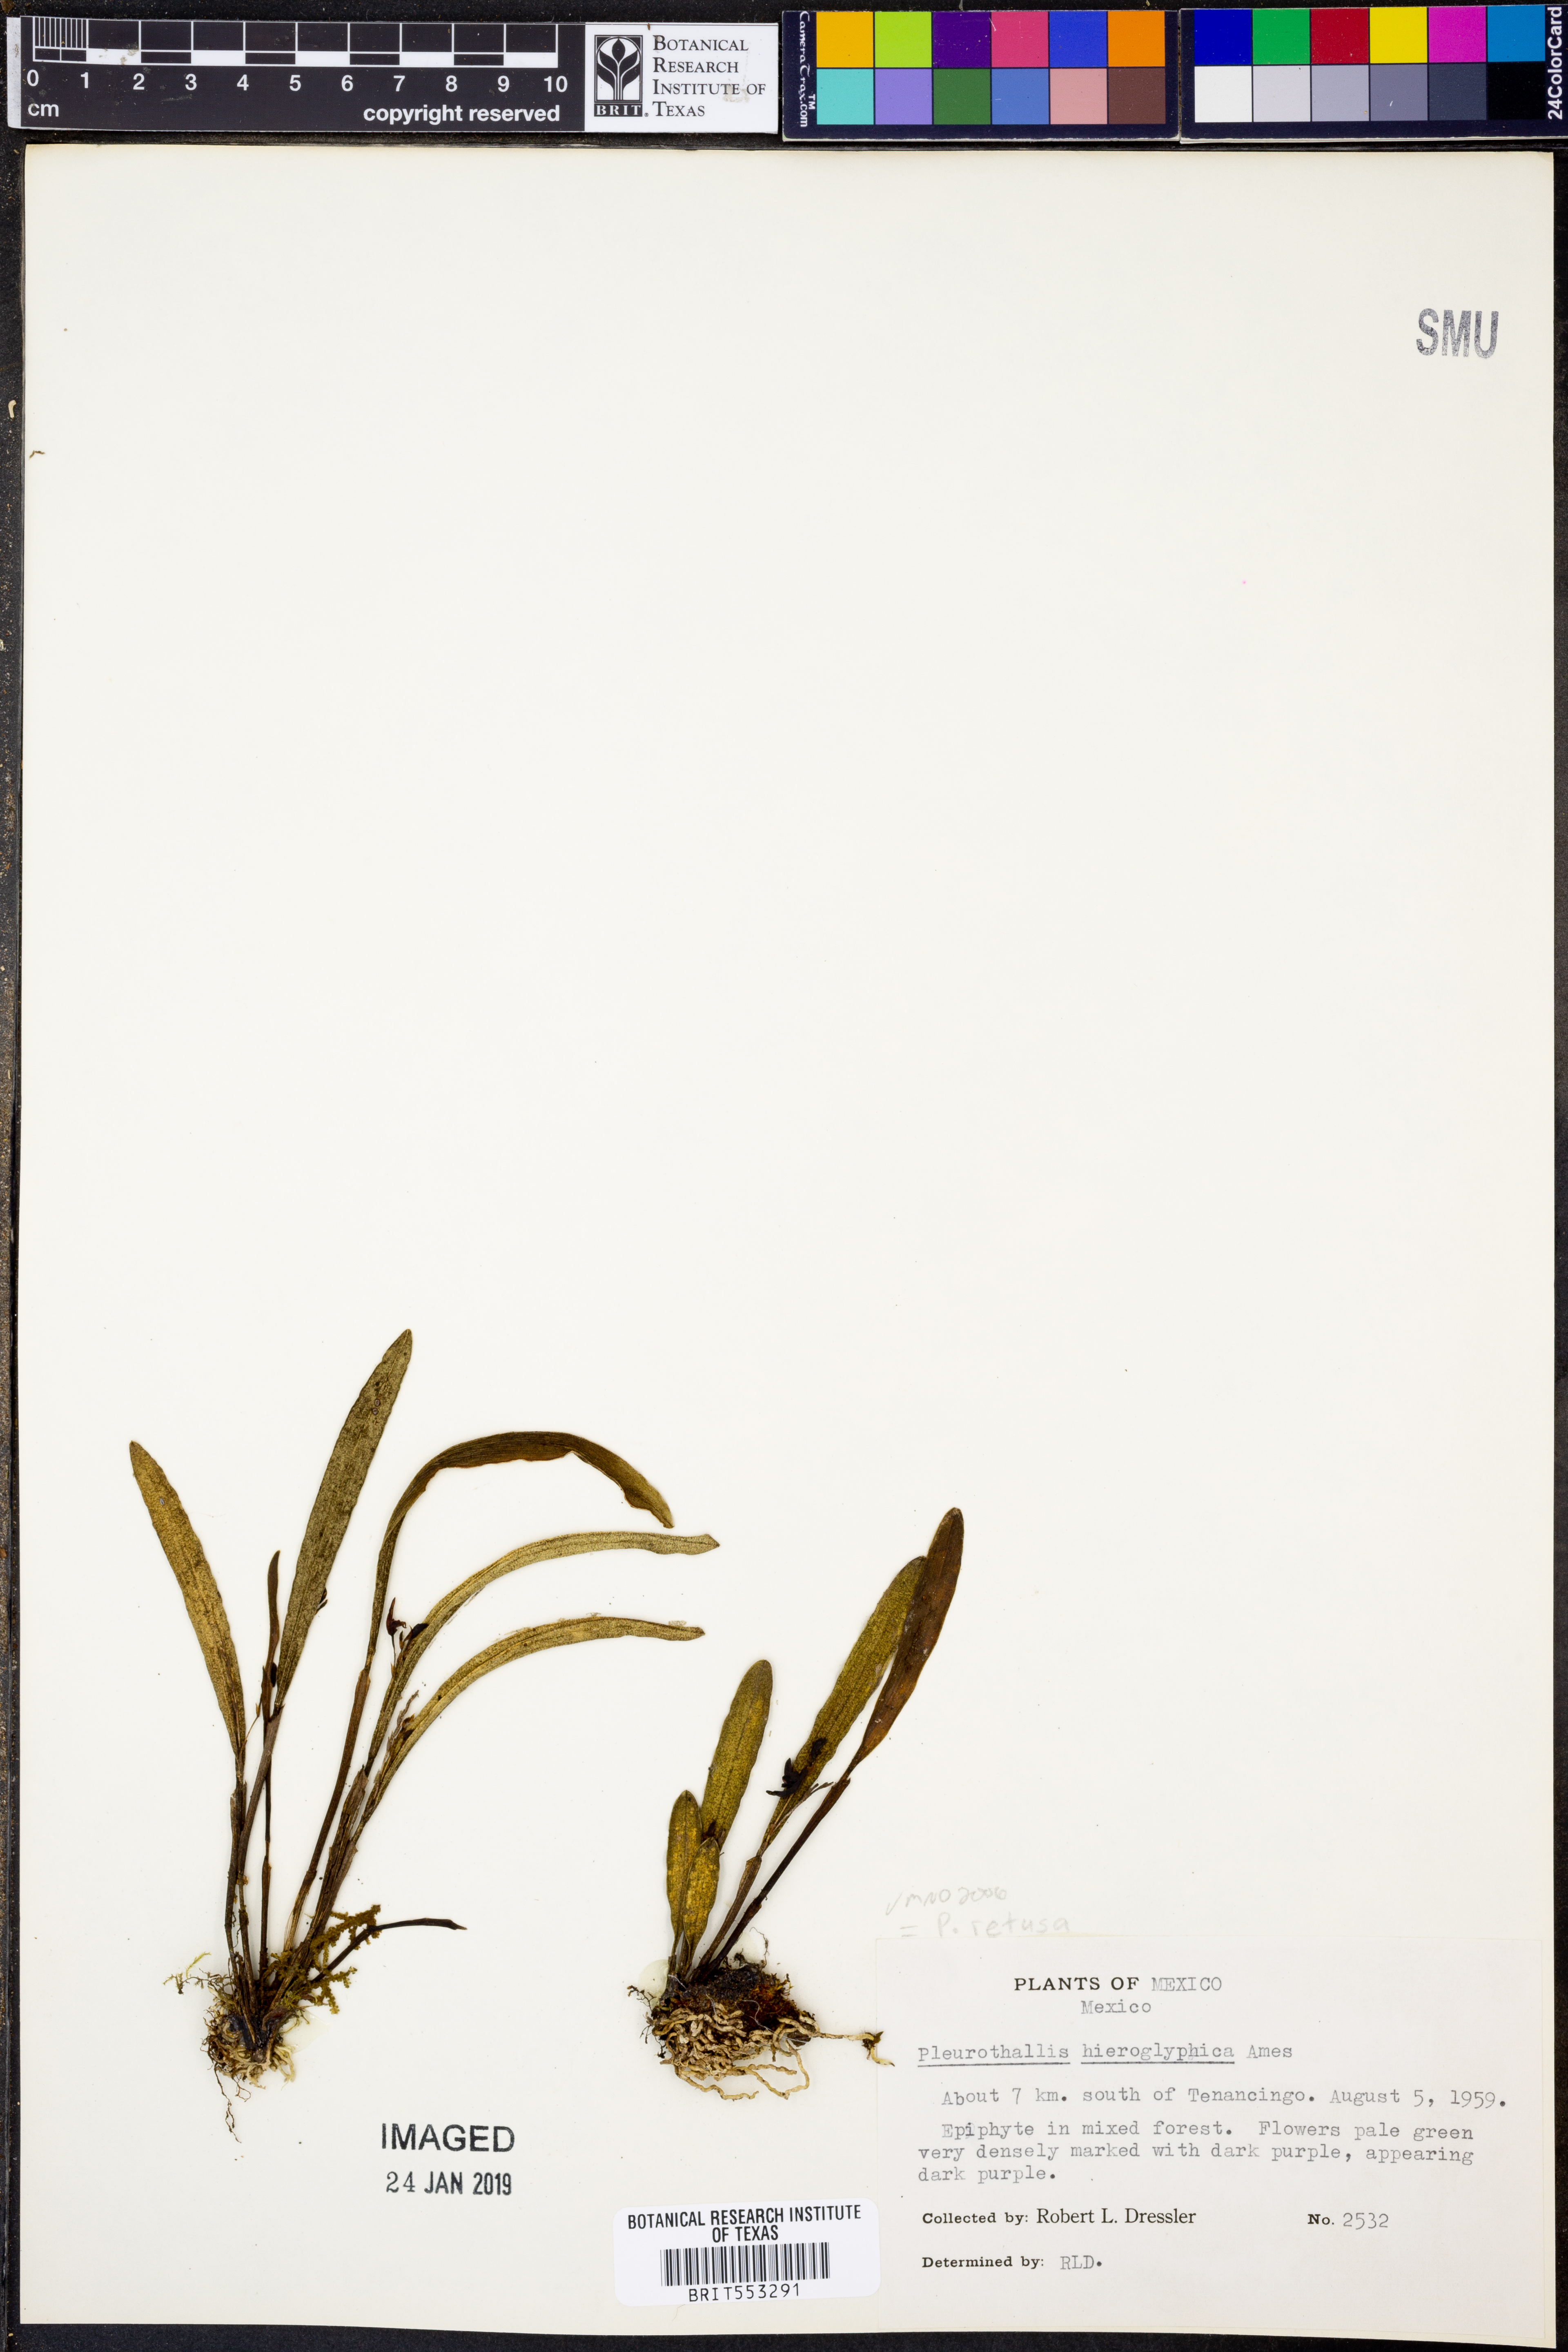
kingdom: Plantae
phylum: Tracheophyta
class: Liliopsida
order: Asparagales
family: Orchidaceae
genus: Stelis
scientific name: Stelis retusa
